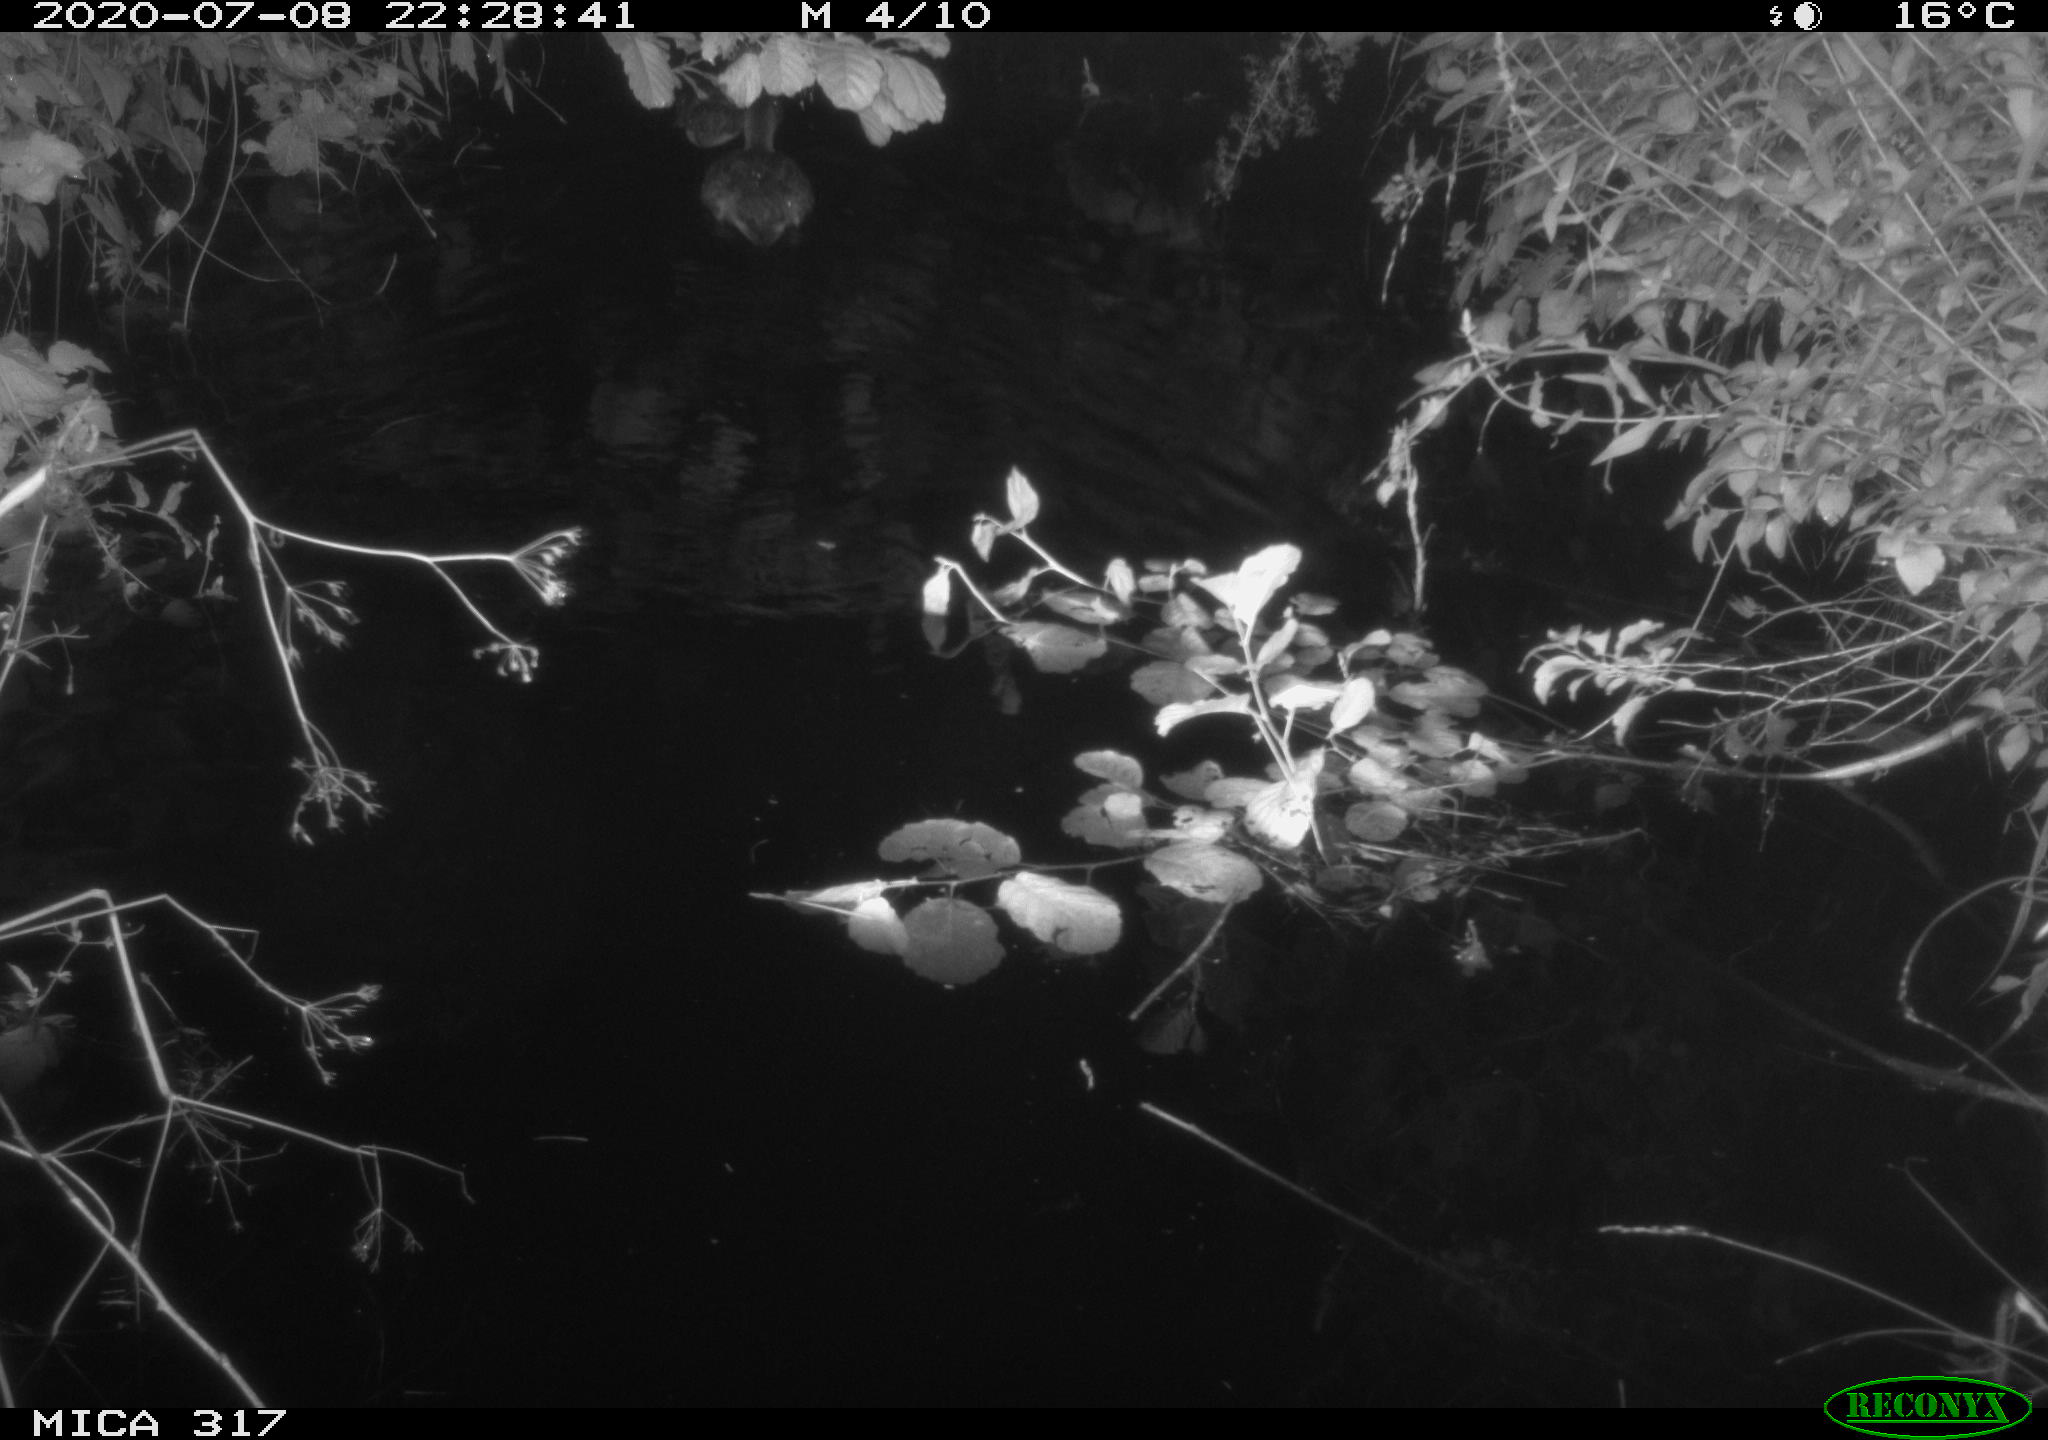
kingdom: Animalia
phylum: Chordata
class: Aves
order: Anseriformes
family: Anatidae
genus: Anas
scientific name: Anas platyrhynchos
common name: Mallard
